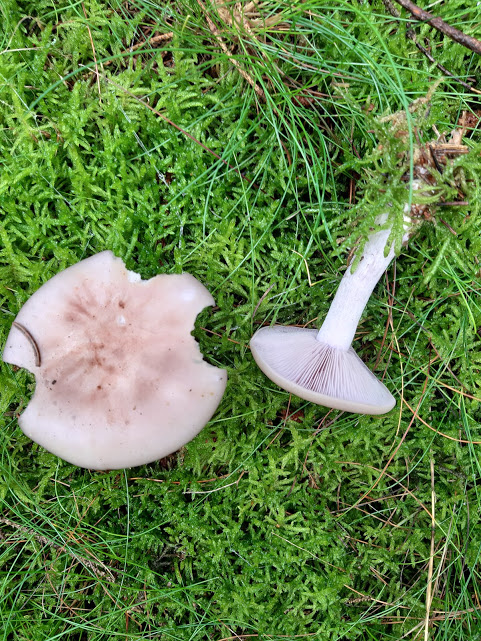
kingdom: Fungi
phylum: Basidiomycota
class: Agaricomycetes
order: Agaricales
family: Tricholomataceae
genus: Lepista
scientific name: Lepista nuda
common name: violet hekseringshat
